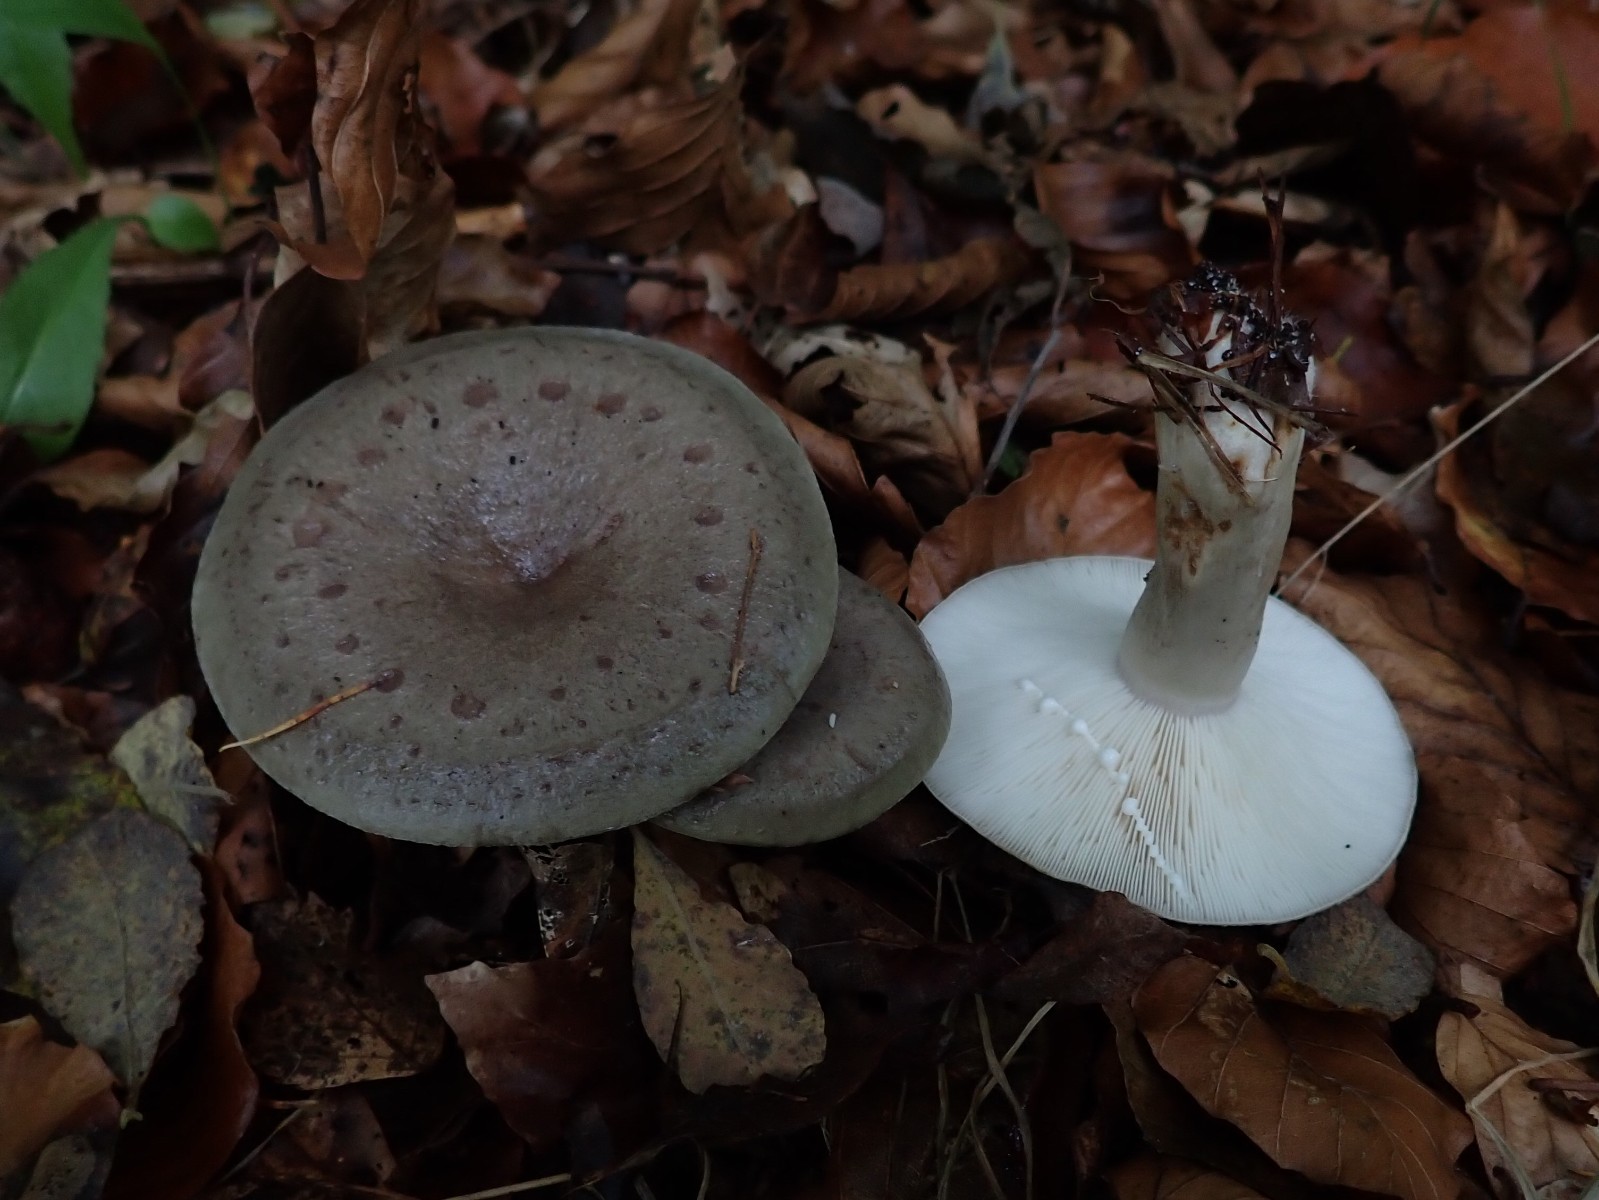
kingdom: Fungi
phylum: Basidiomycota
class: Agaricomycetes
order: Russulales
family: Russulaceae
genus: Lactarius
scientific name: Lactarius blennius
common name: dråbeplettet mælkehat
